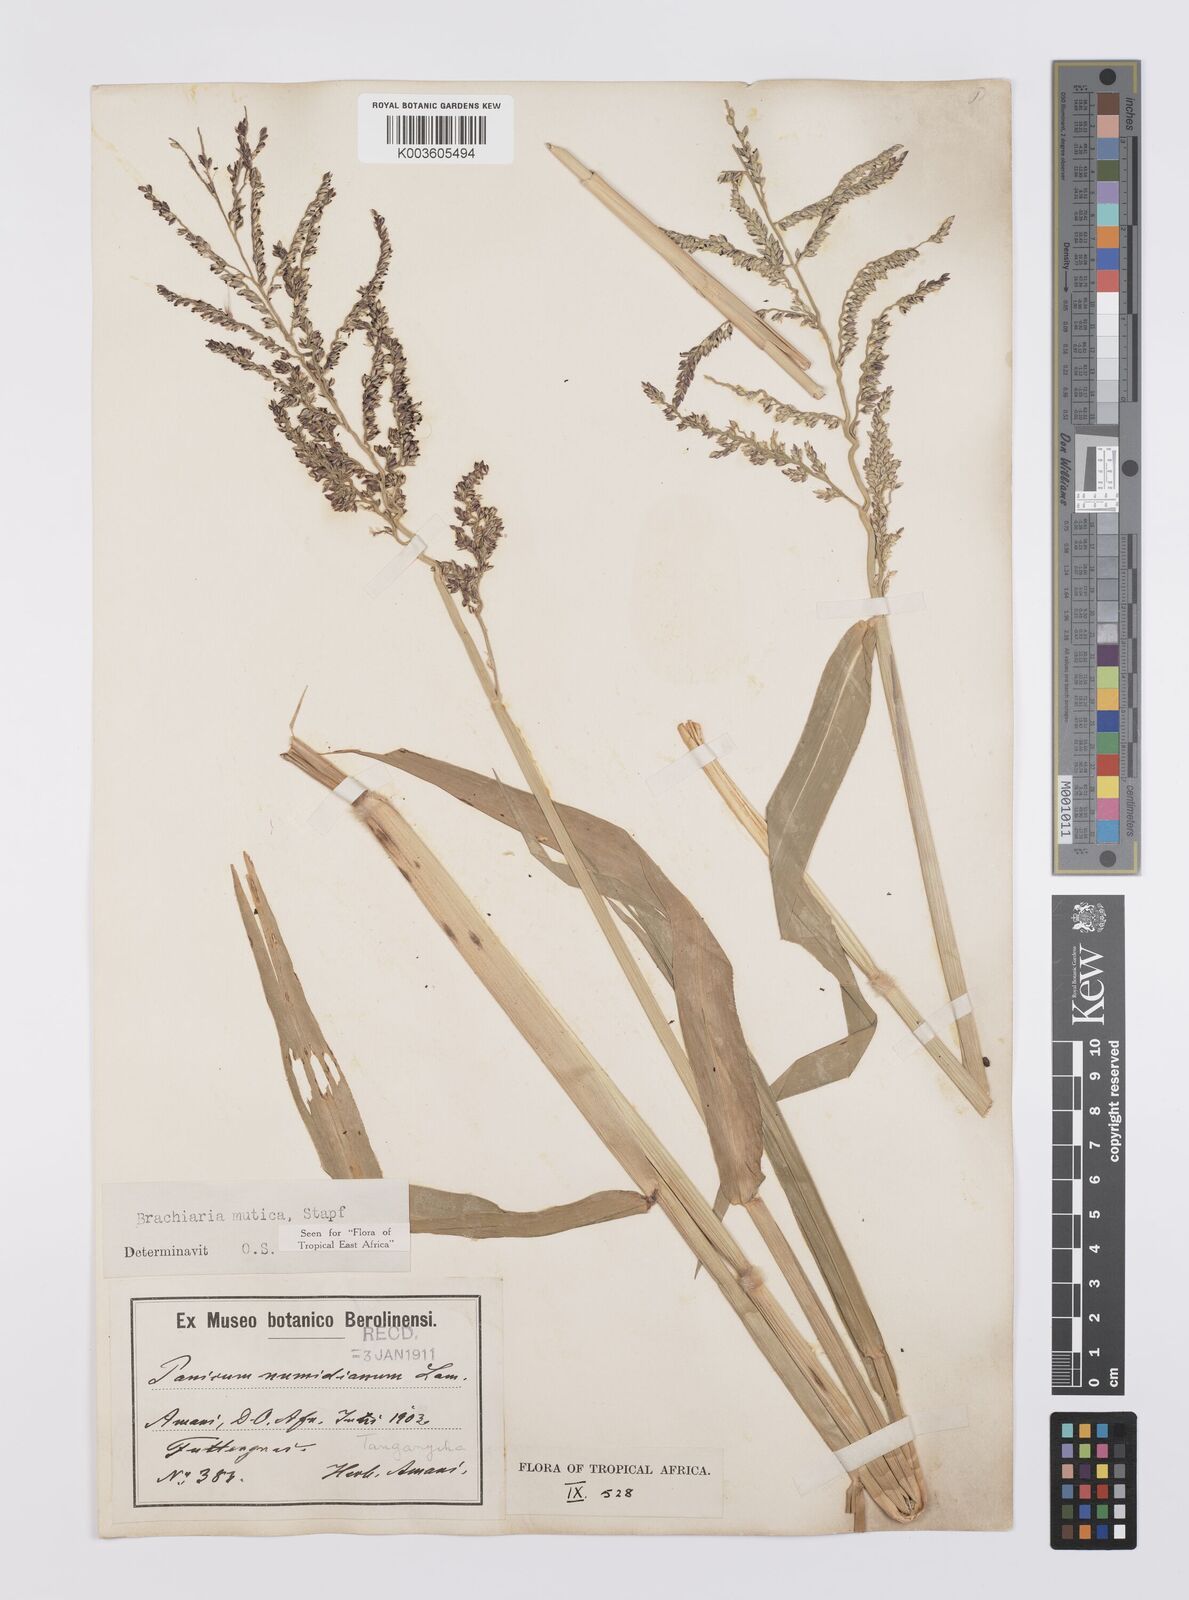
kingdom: Plantae
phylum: Tracheophyta
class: Liliopsida
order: Poales
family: Poaceae
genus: Urochloa
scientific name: Urochloa mutica
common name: Para grass
